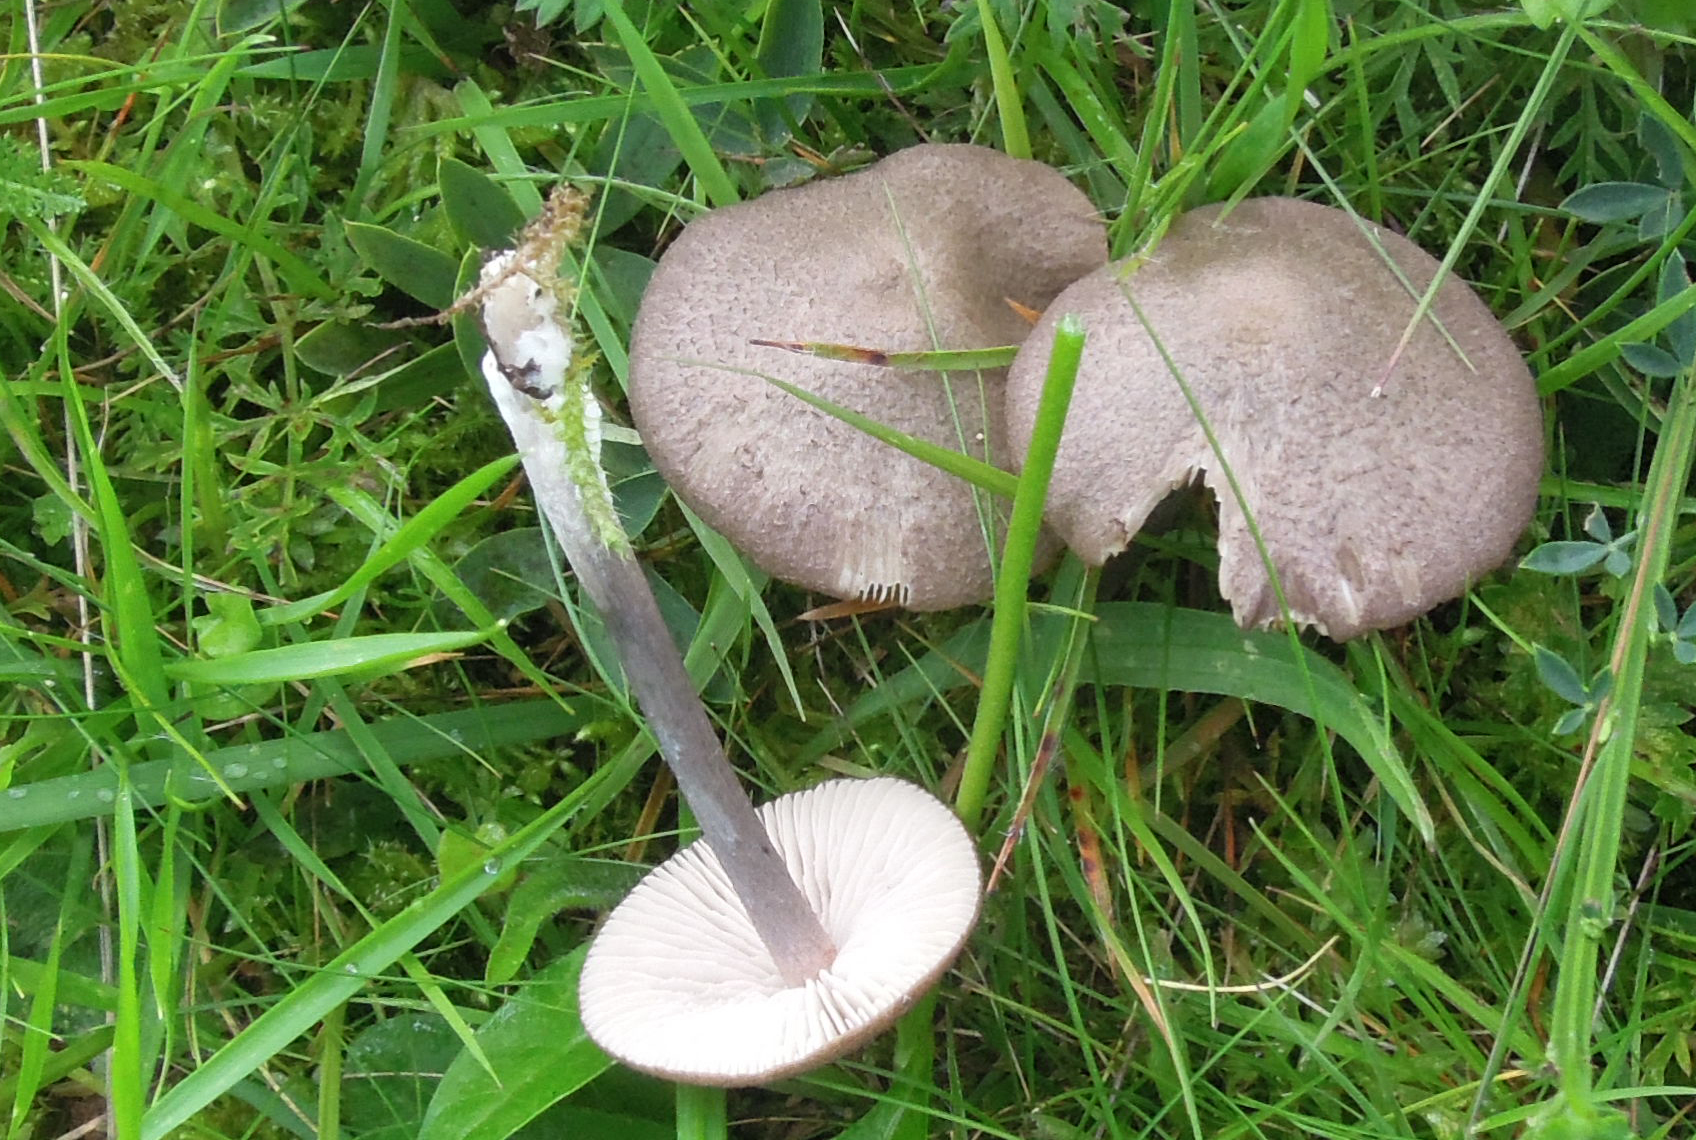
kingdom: Fungi
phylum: Basidiomycota
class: Agaricomycetes
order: Agaricales
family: Entolomataceae
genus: Entoloma
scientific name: Entoloma griseocyaneum
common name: gråblå rødblad
